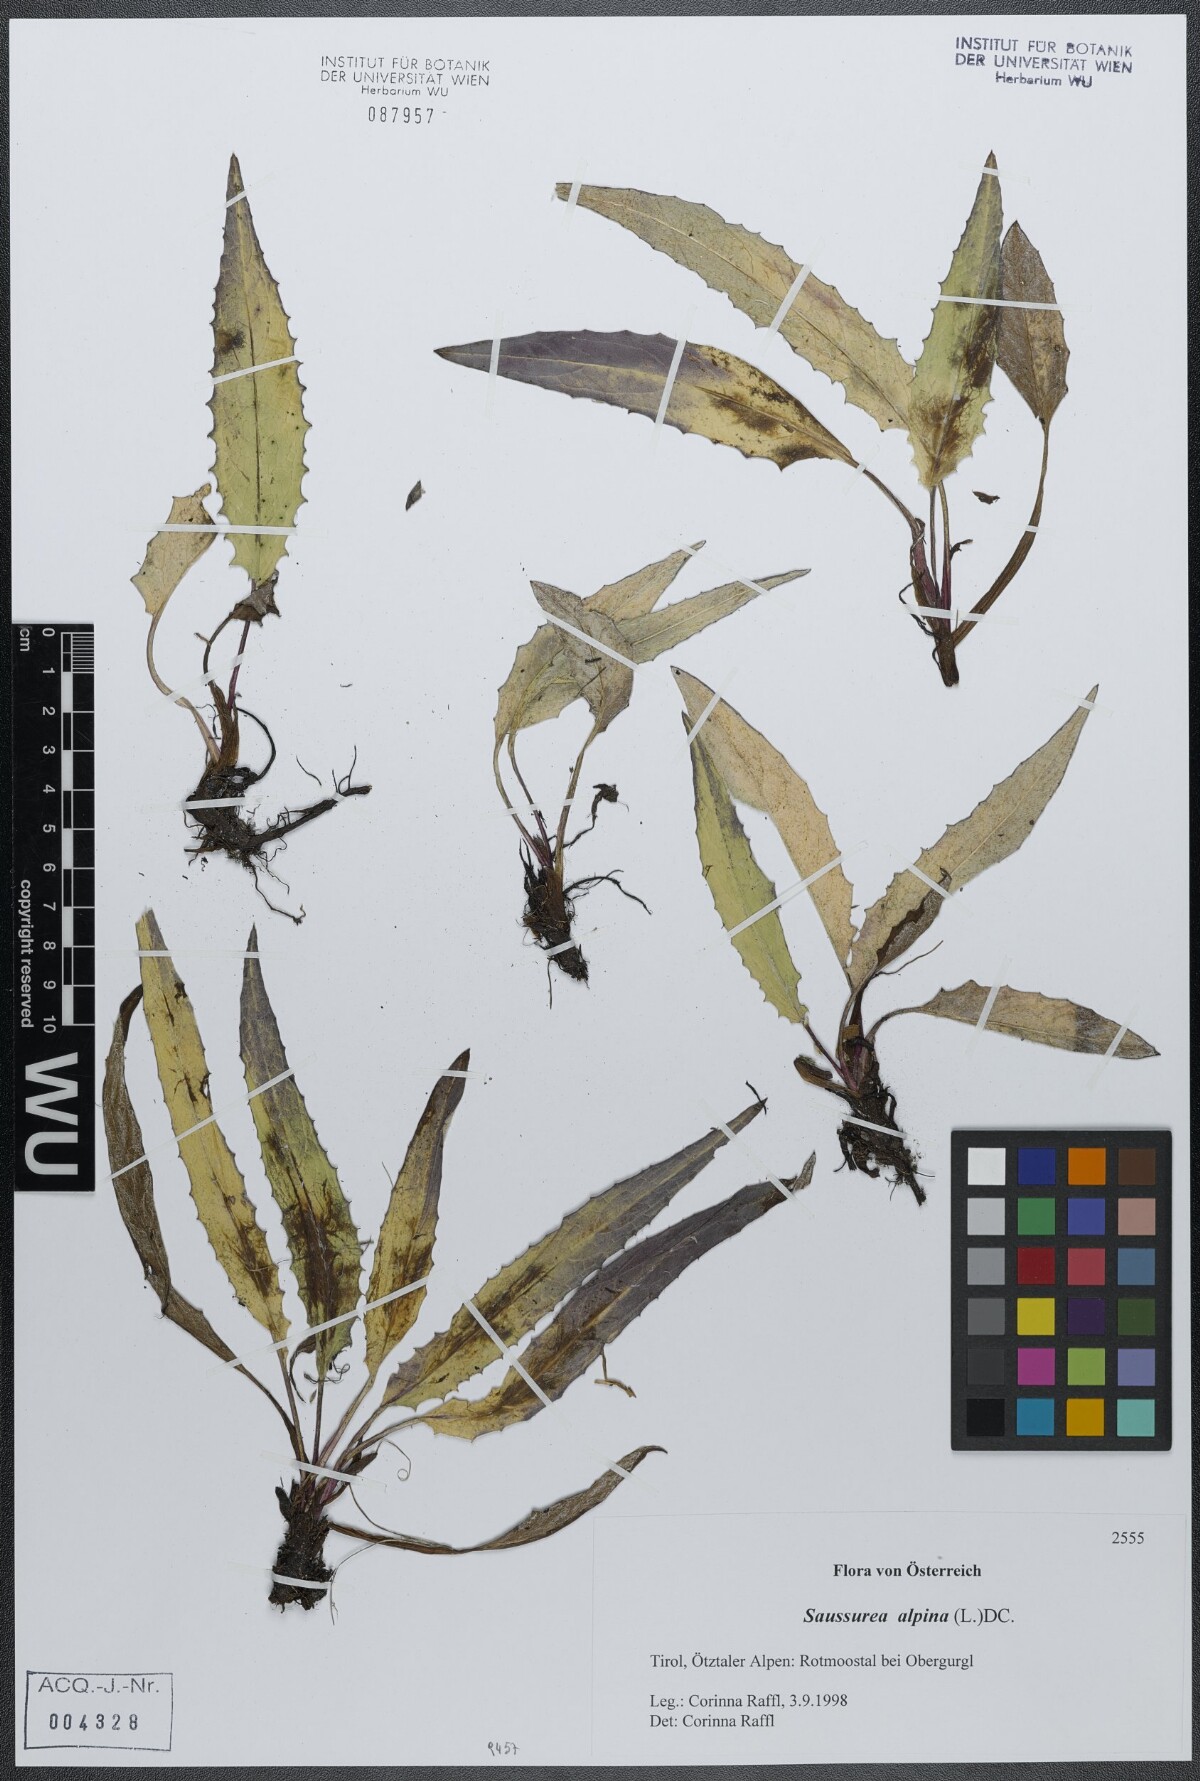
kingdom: Plantae
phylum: Tracheophyta
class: Magnoliopsida
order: Asterales
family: Asteraceae
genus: Saussurea
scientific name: Saussurea alpina
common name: Alpine saw-wort
